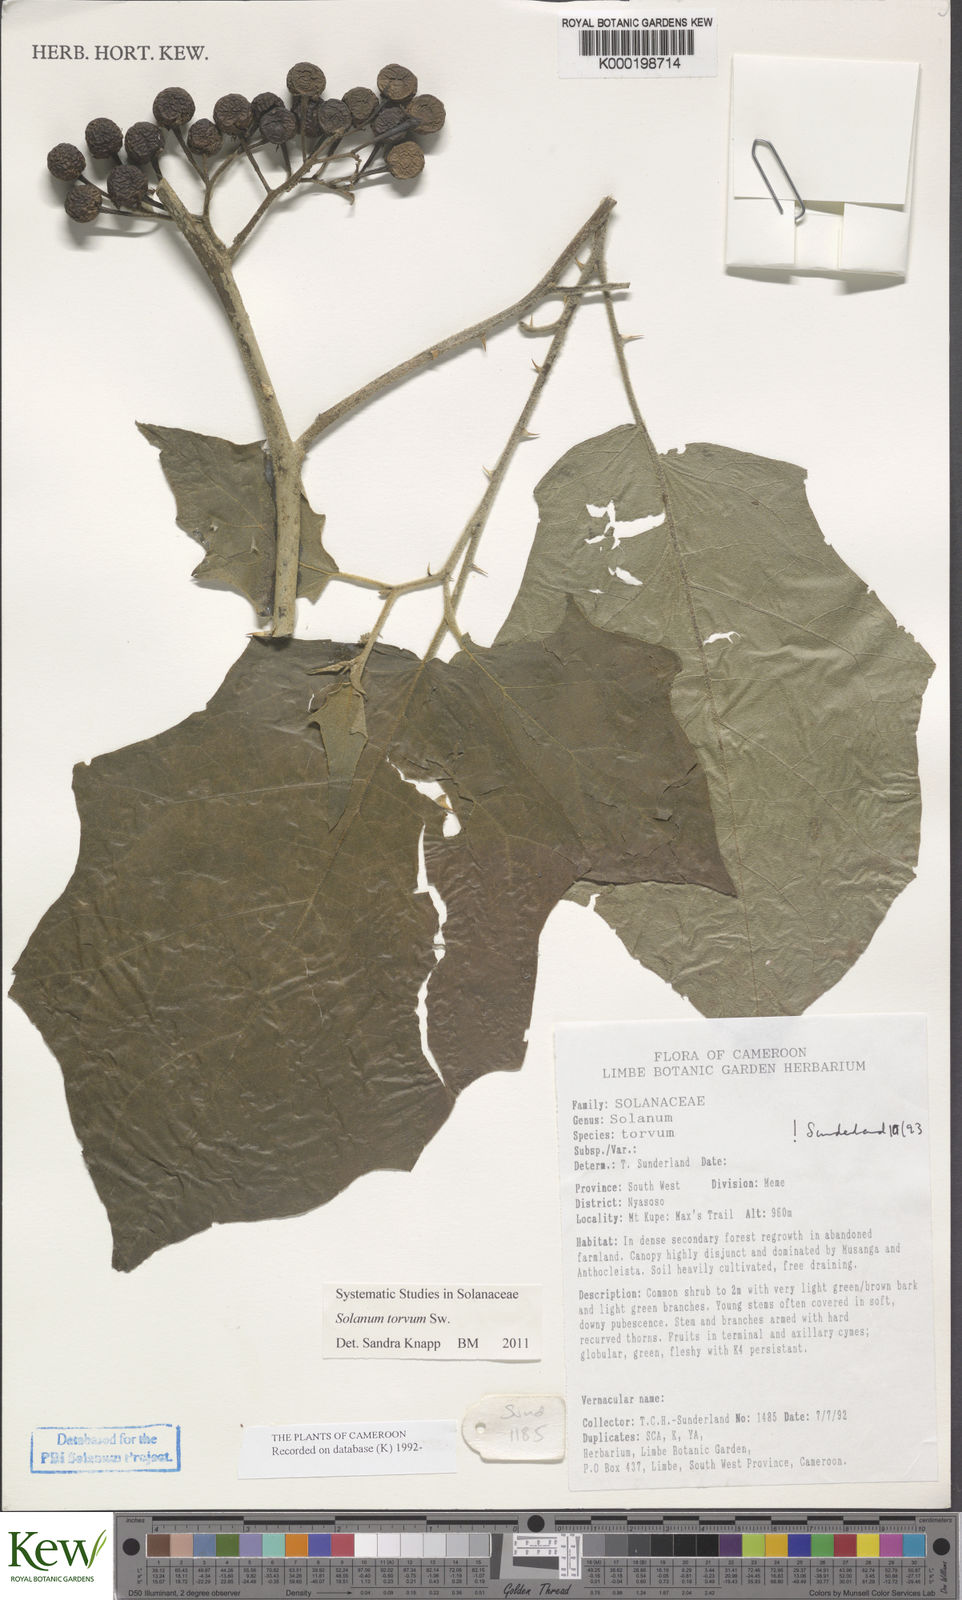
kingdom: Plantae
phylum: Tracheophyta
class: Magnoliopsida
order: Solanales
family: Solanaceae
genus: Solanum
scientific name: Solanum torvum
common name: Turkey berry
